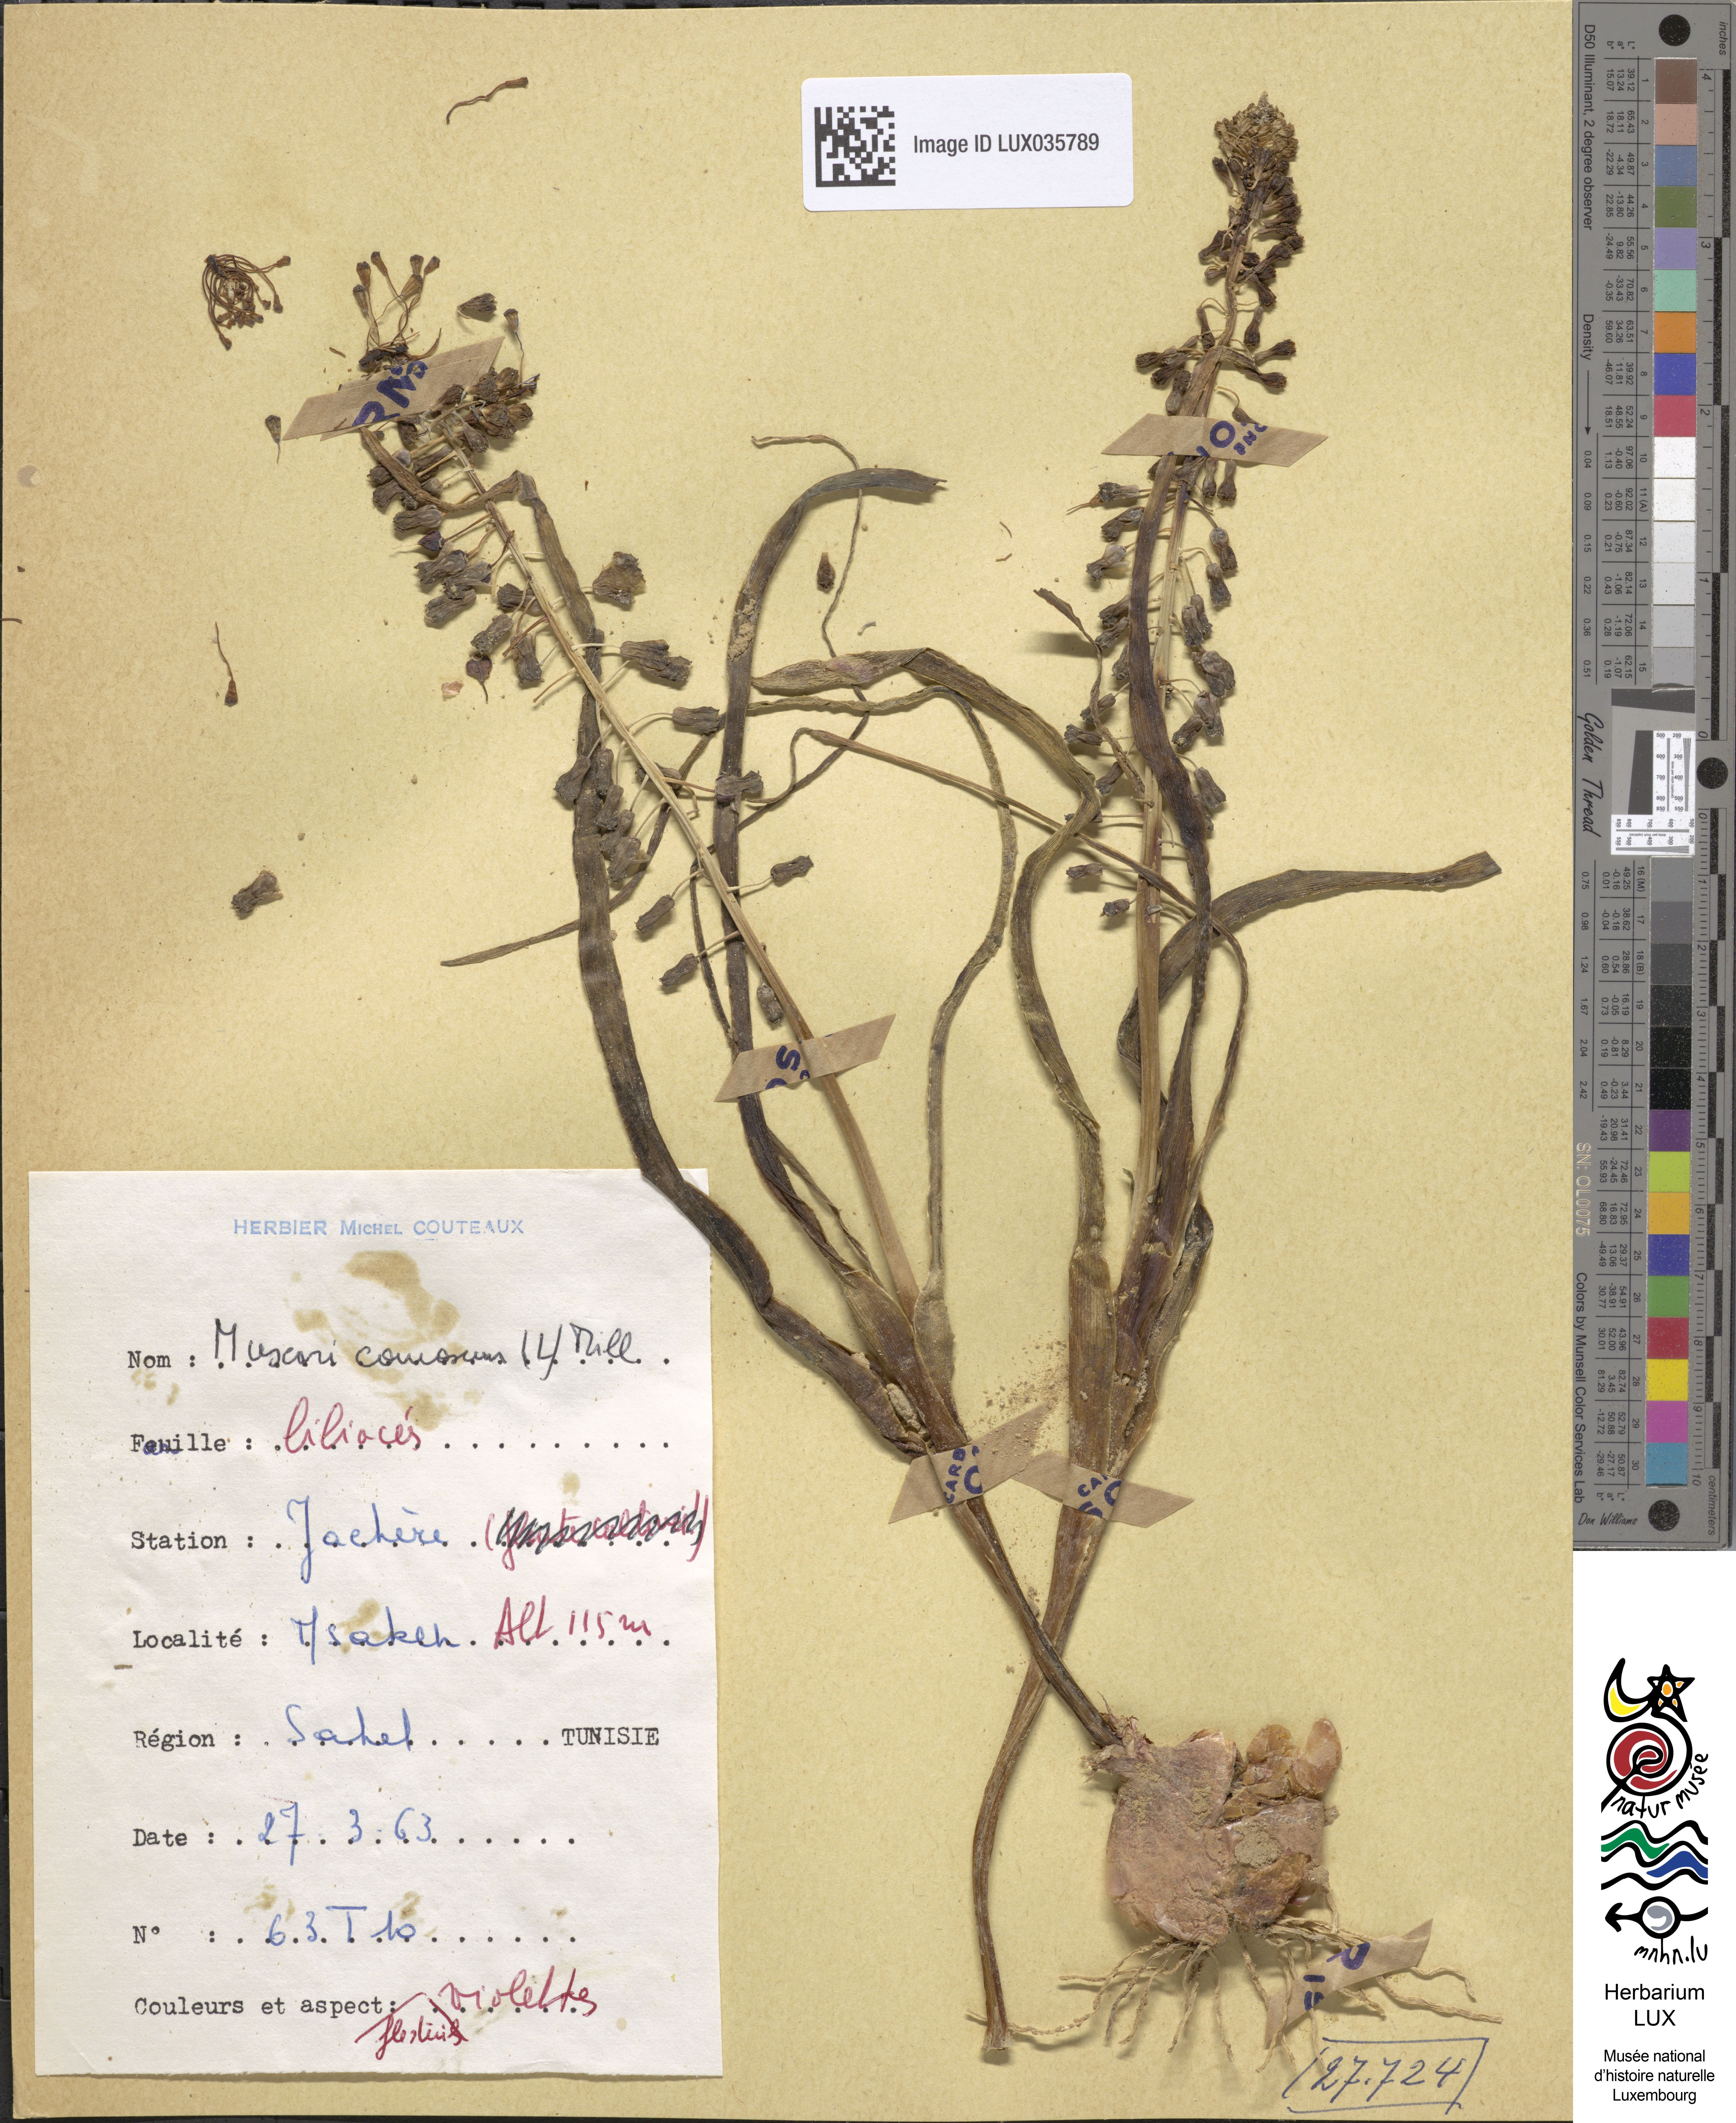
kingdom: Plantae
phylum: Tracheophyta
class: Liliopsida
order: Asparagales
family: Asparagaceae
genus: Muscari
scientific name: Muscari comosum
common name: Tassel hyacinth
